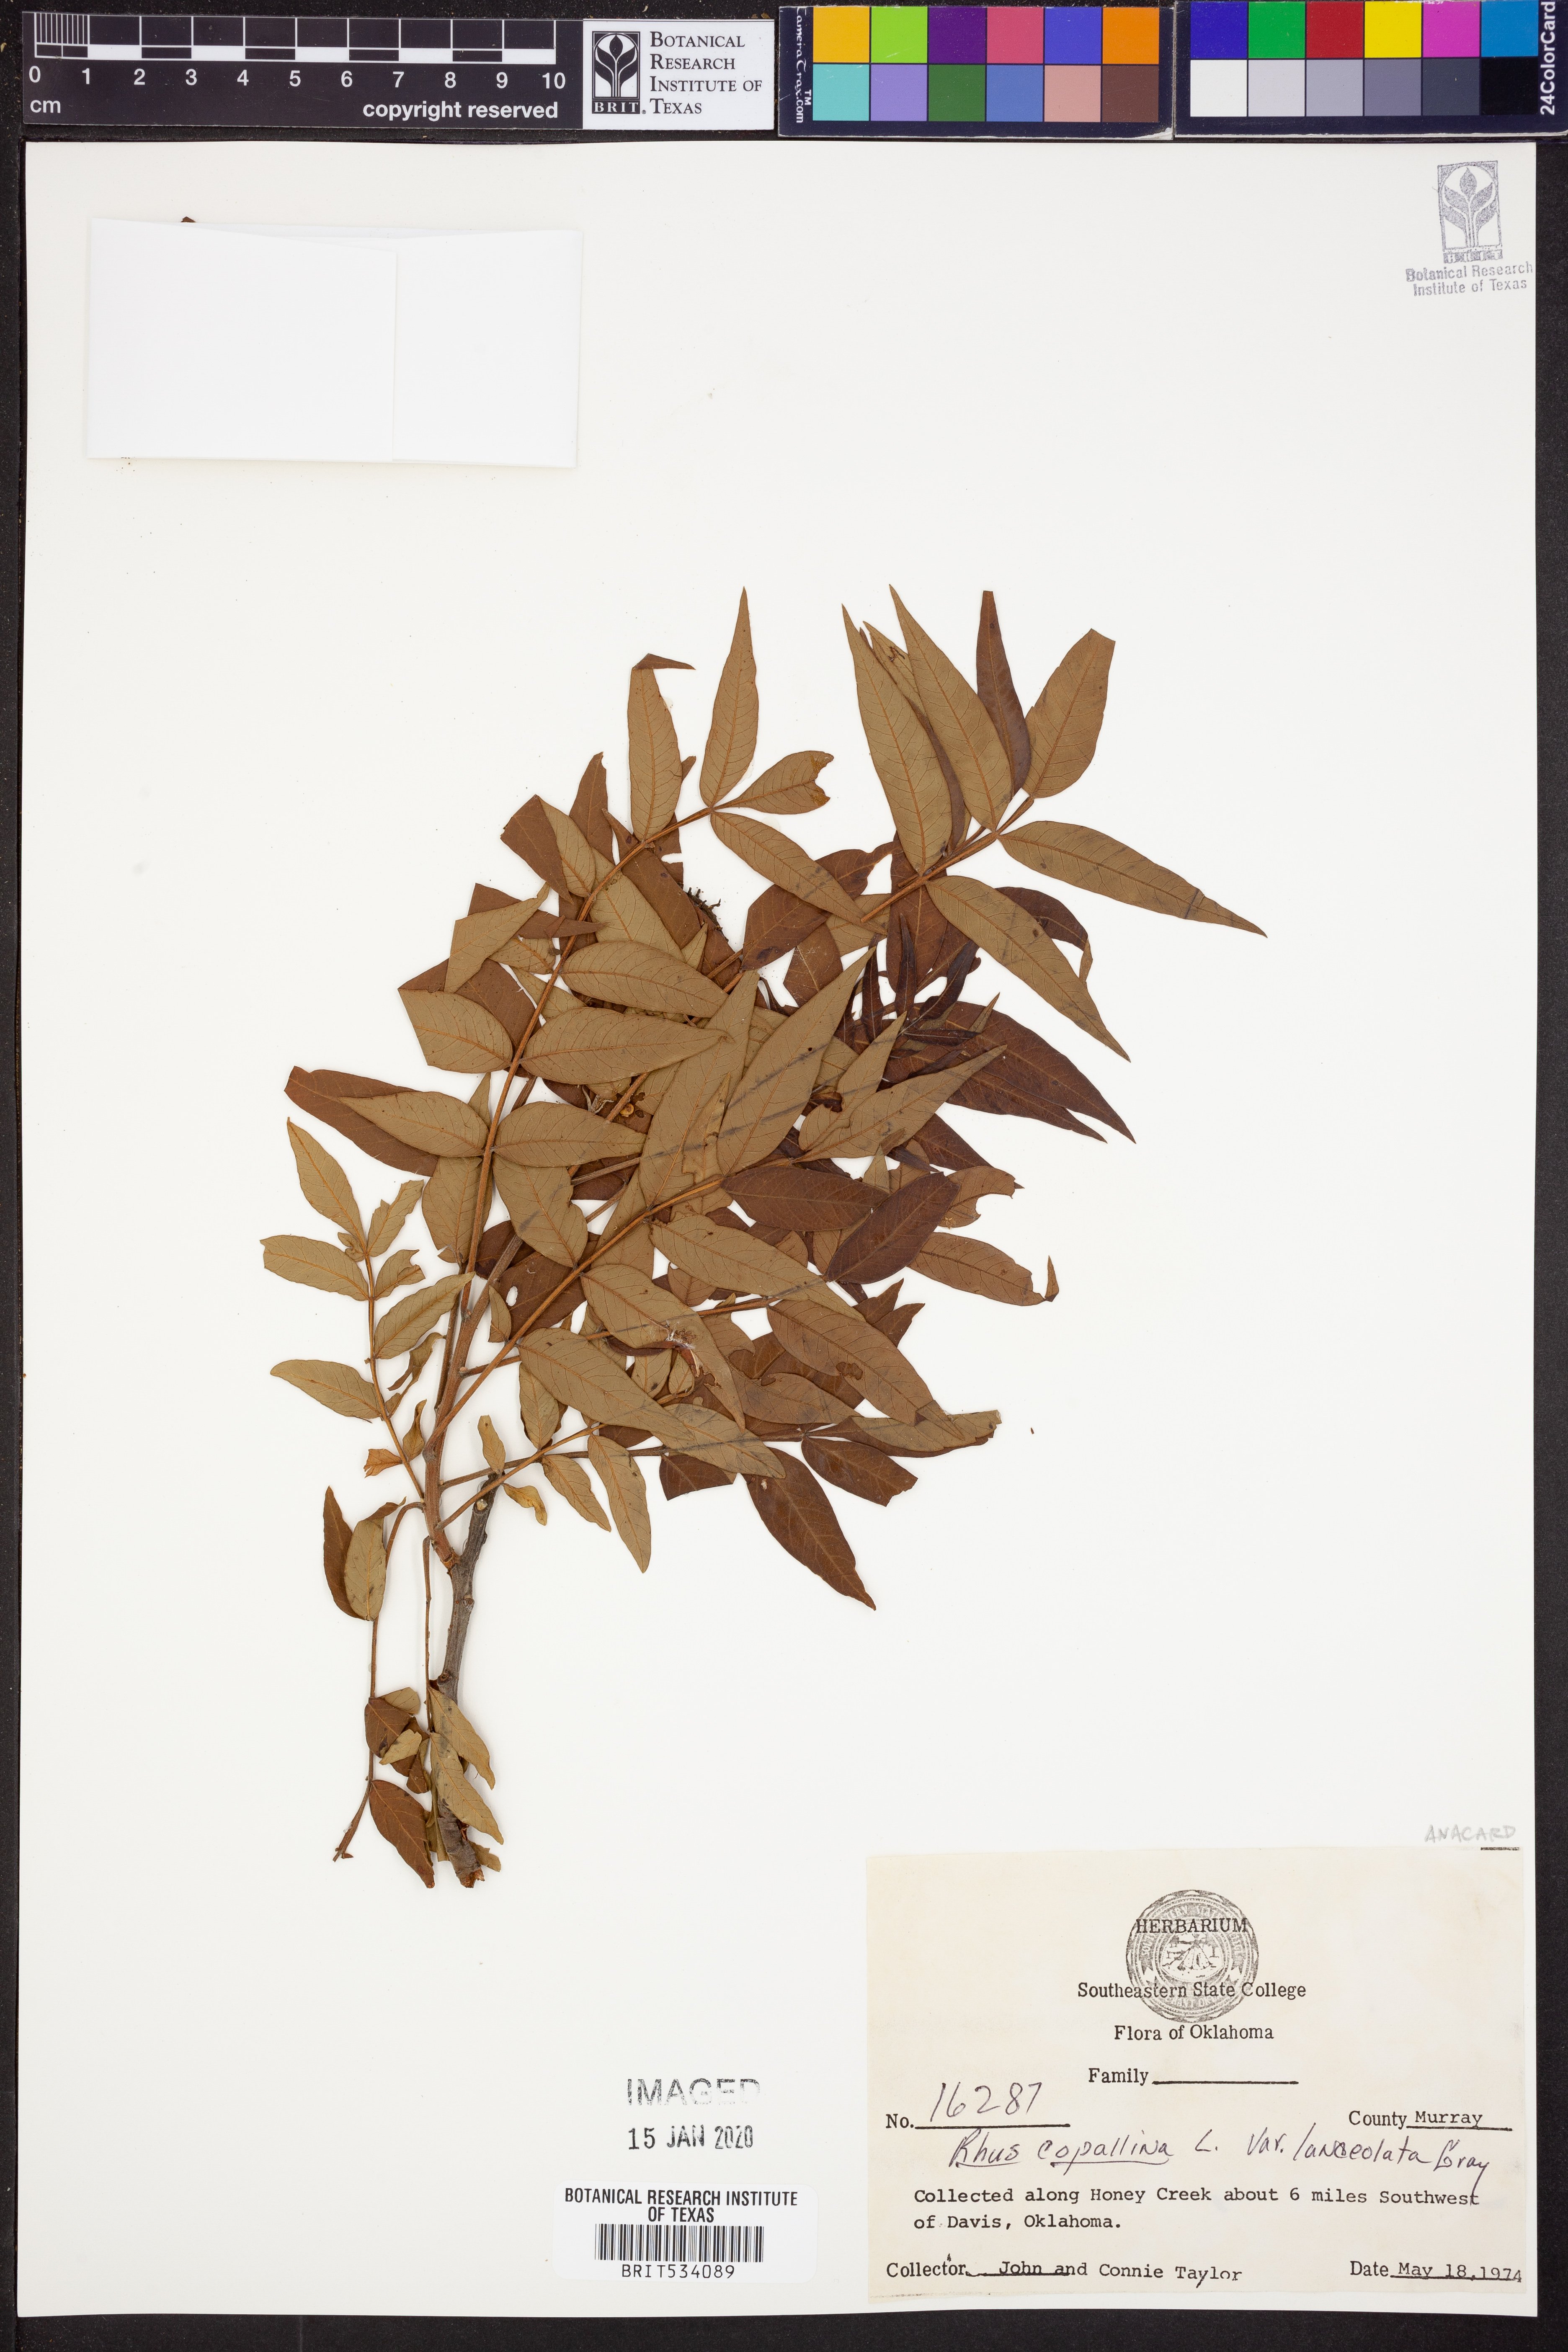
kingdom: Plantae
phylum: Tracheophyta
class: Magnoliopsida
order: Sapindales
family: Anacardiaceae
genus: Rhus
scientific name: Rhus lanceolata
